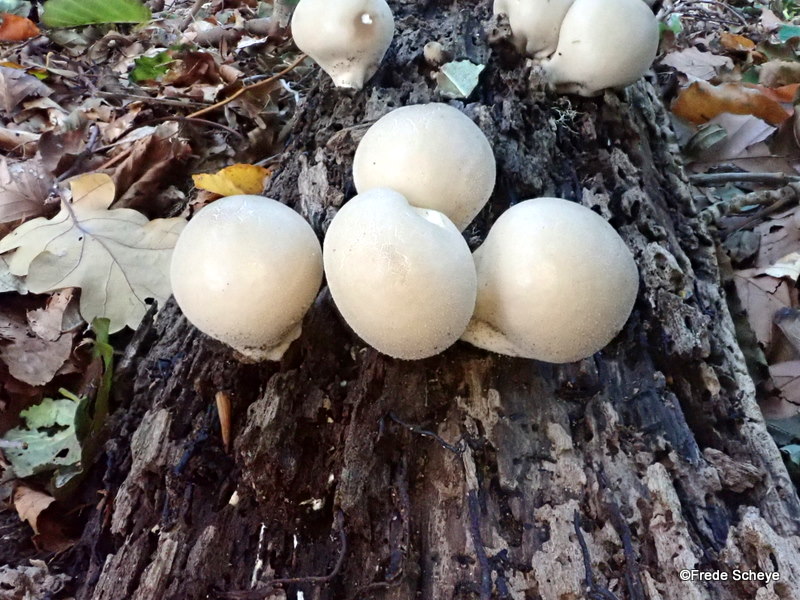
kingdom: Fungi
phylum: Basidiomycota
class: Agaricomycetes
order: Agaricales
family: Lycoperdaceae
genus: Apioperdon
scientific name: Apioperdon pyriforme
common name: pære-støvbold
